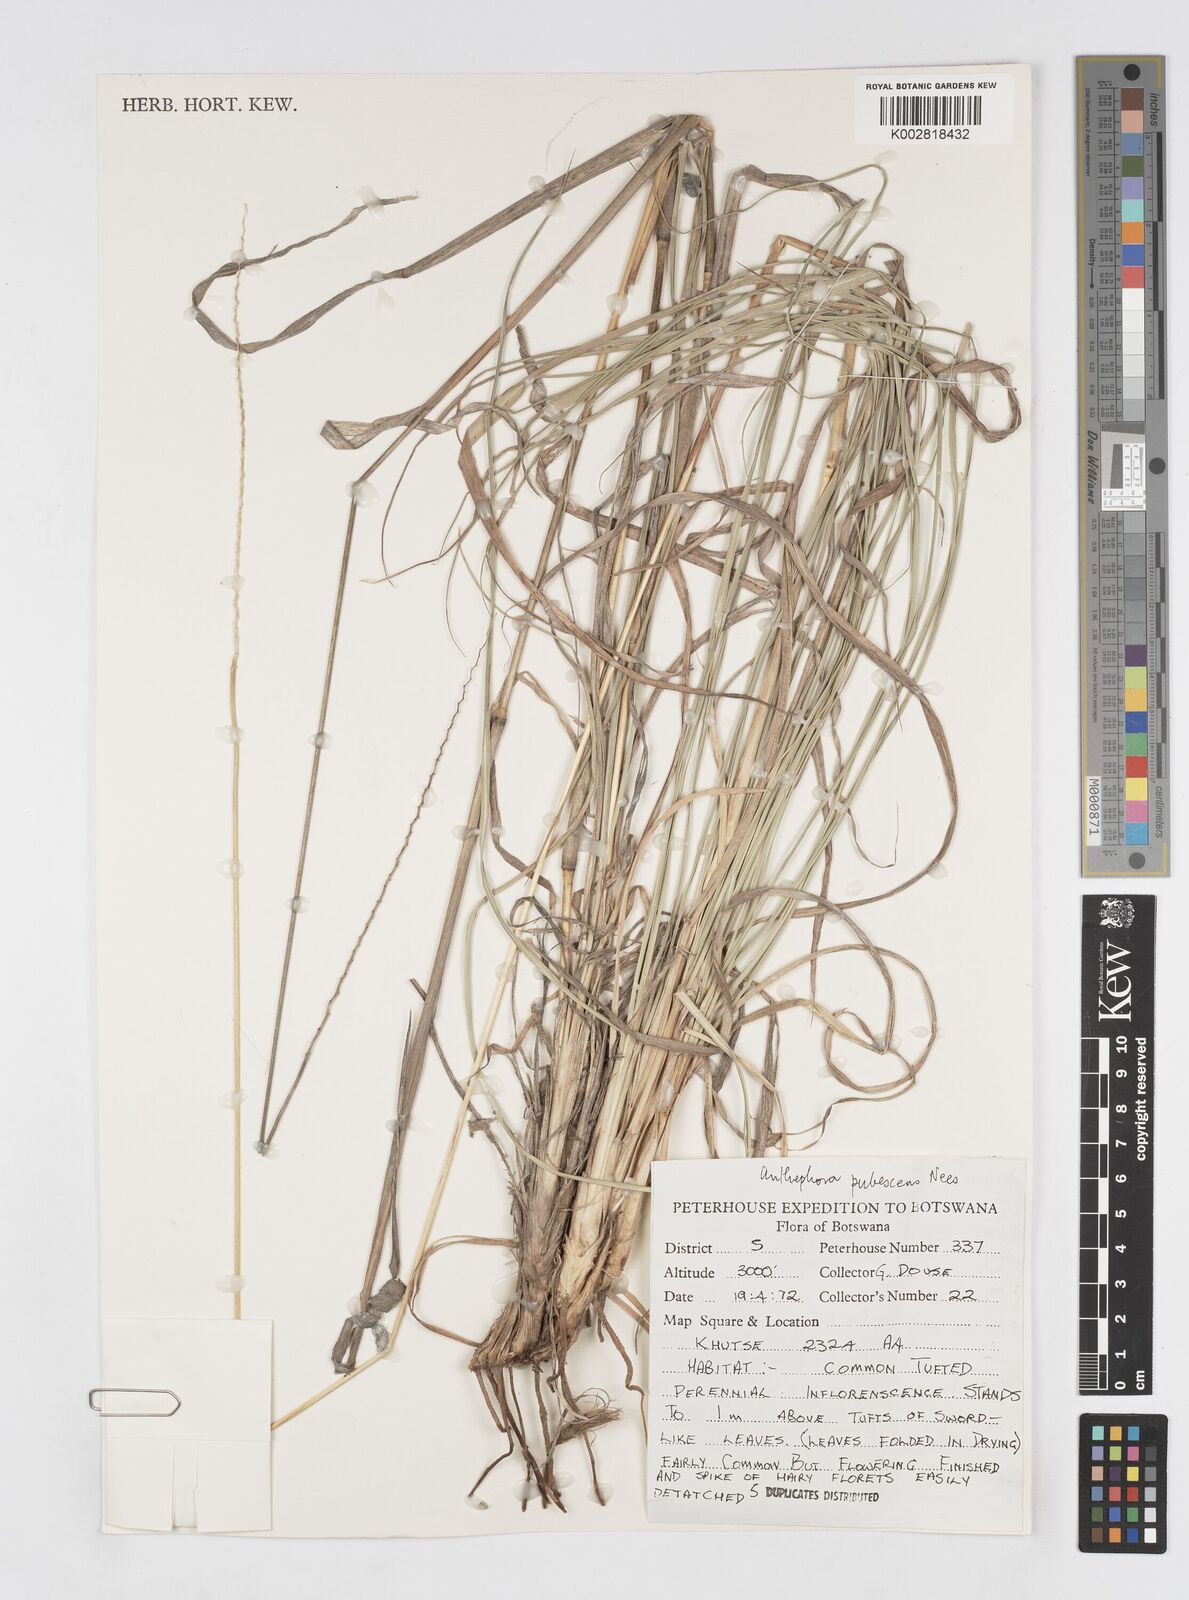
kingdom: Plantae
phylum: Tracheophyta
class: Liliopsida
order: Poales
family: Poaceae
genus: Anthephora
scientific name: Anthephora pubescens
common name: Wool grass
